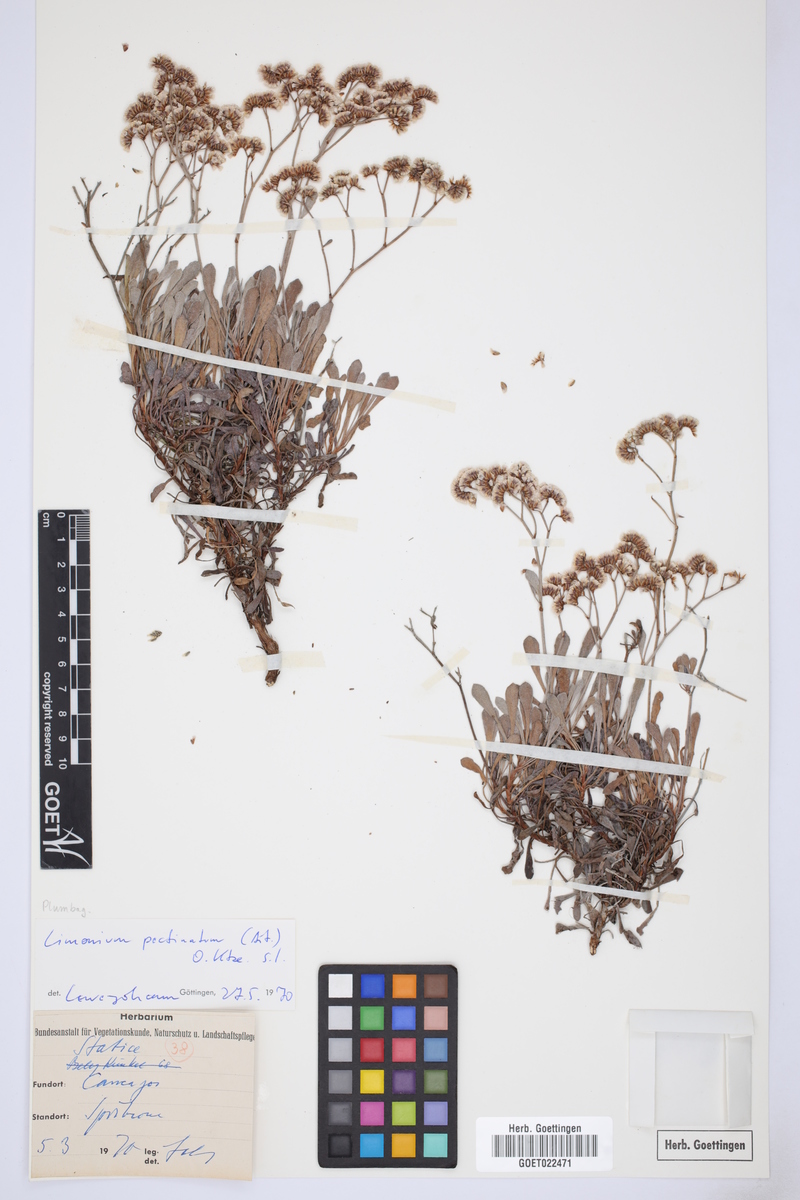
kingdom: Plantae
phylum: Tracheophyta
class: Magnoliopsida
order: Caryophyllales
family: Plumbaginaceae
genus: Limonium
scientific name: Limonium pectinatum
